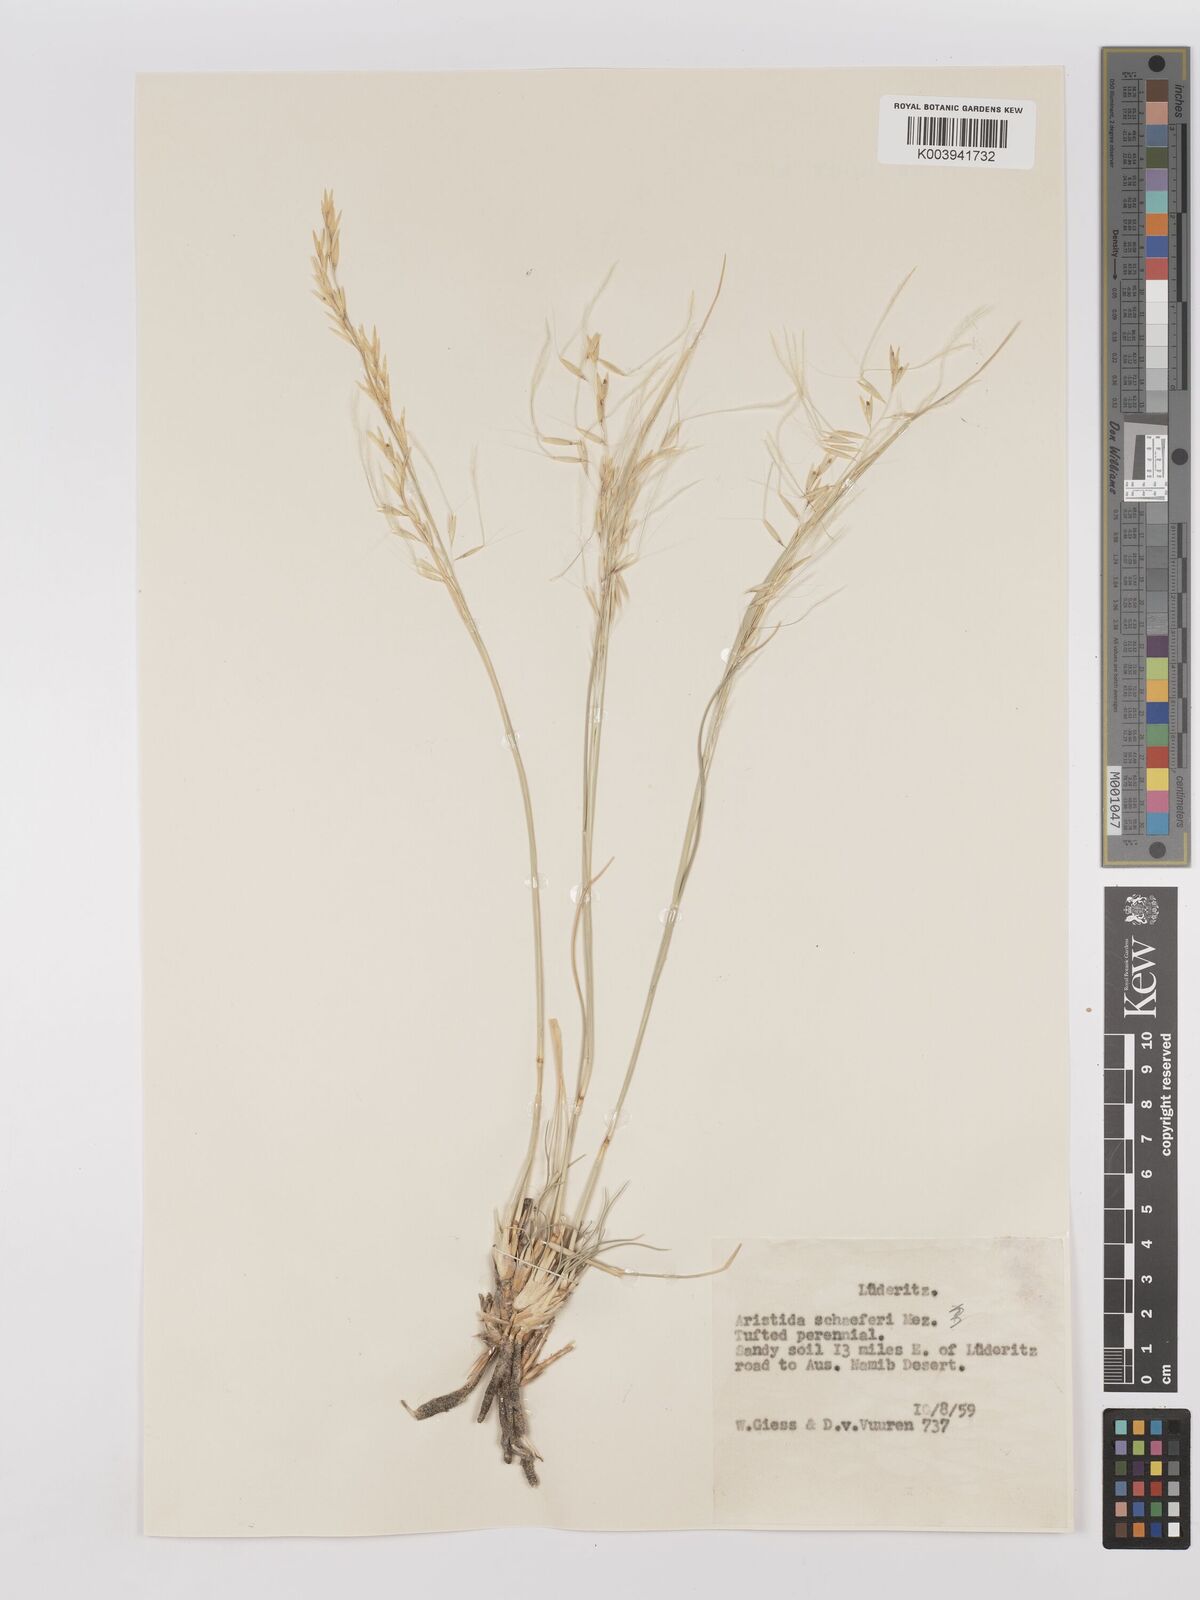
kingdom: Plantae
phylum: Tracheophyta
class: Liliopsida
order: Poales
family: Poaceae
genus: Stipagrostis
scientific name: Stipagrostis schaeferi
